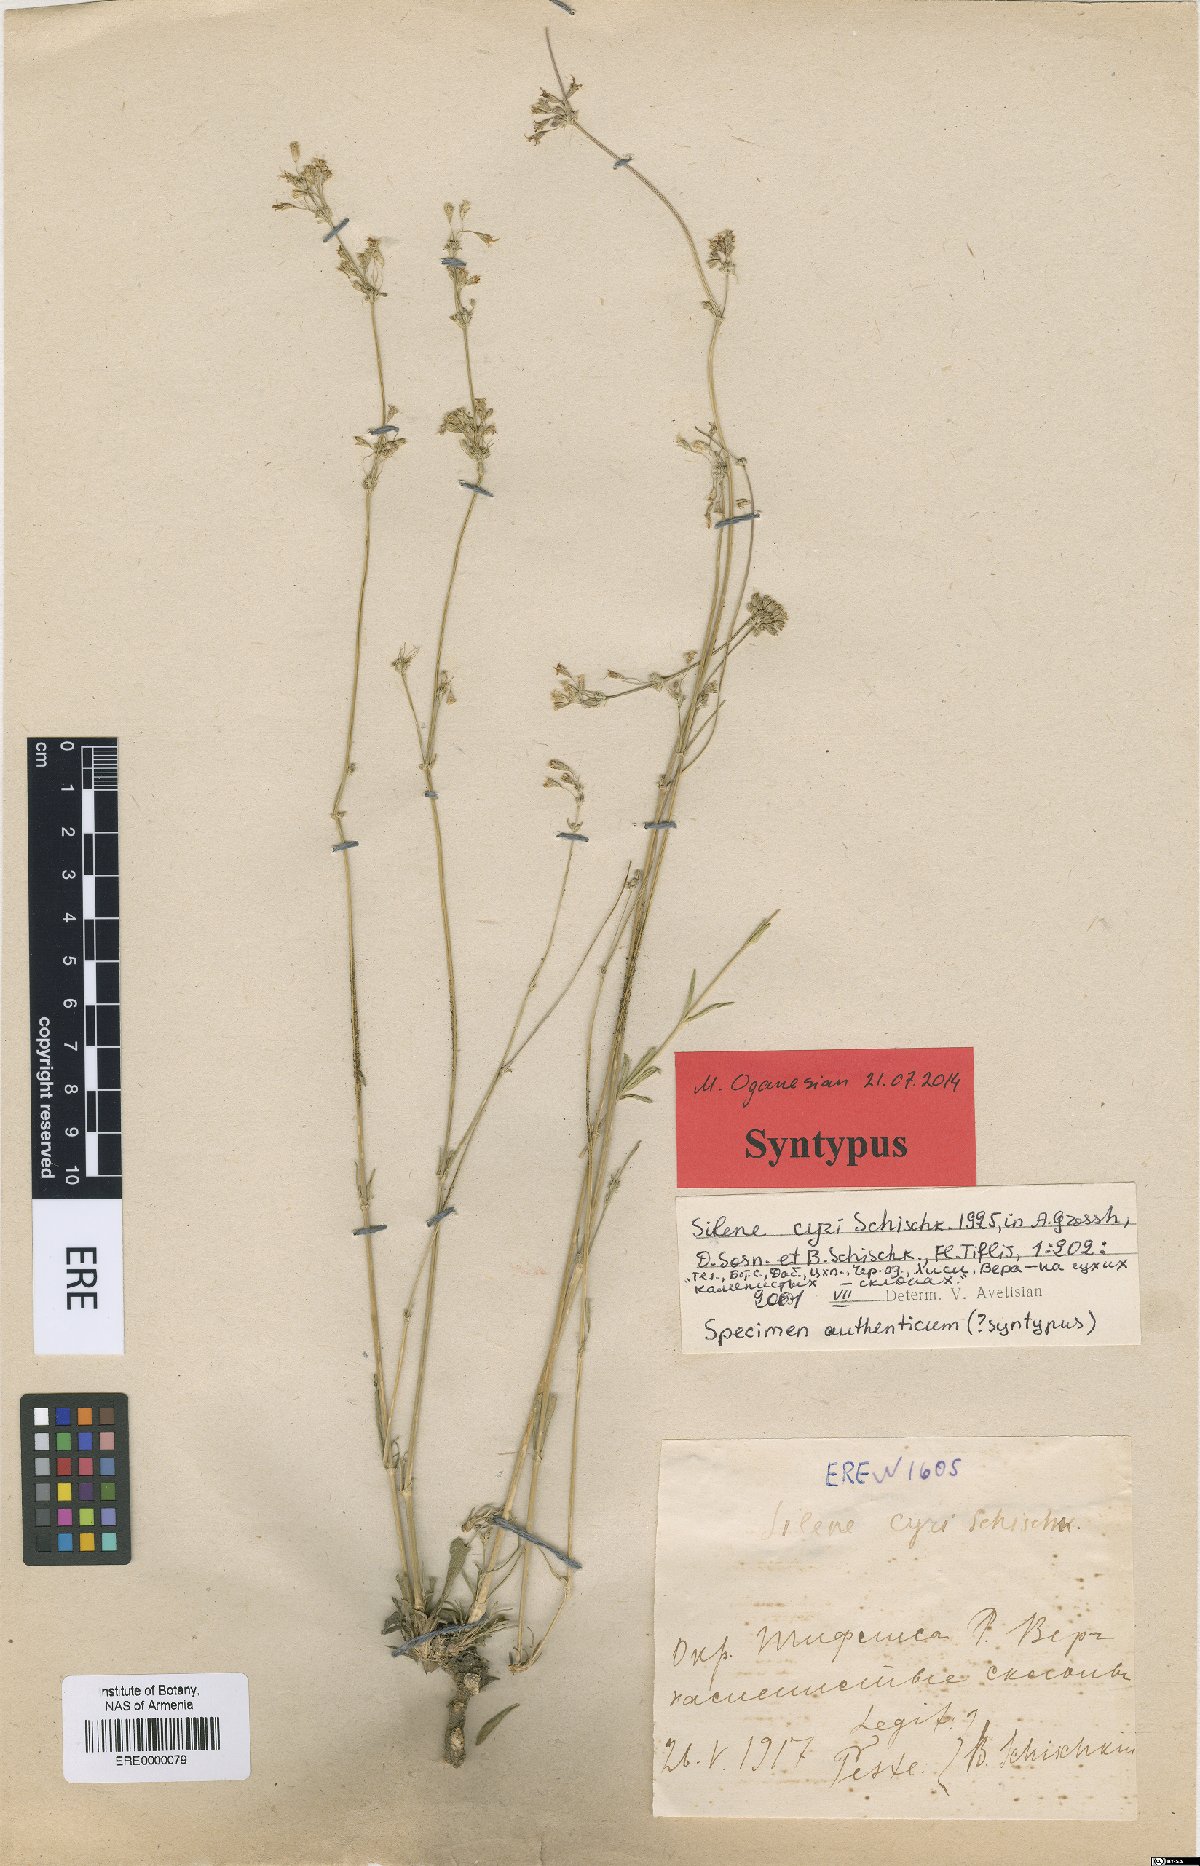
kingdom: Plantae
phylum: Tracheophyta
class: Magnoliopsida
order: Caryophyllales
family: Caryophyllaceae
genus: Silene
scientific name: Silene cyri
